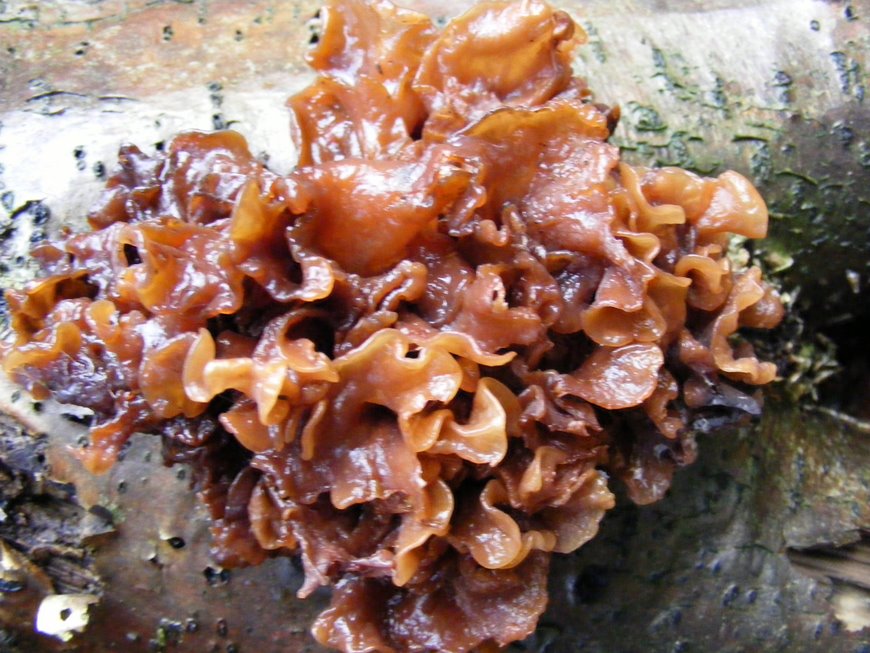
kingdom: Fungi
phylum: Basidiomycota
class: Tremellomycetes
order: Tremellales
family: Tremellaceae
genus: Phaeotremella
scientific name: Phaeotremella frondosa
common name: kæmpe-bævresvamp
